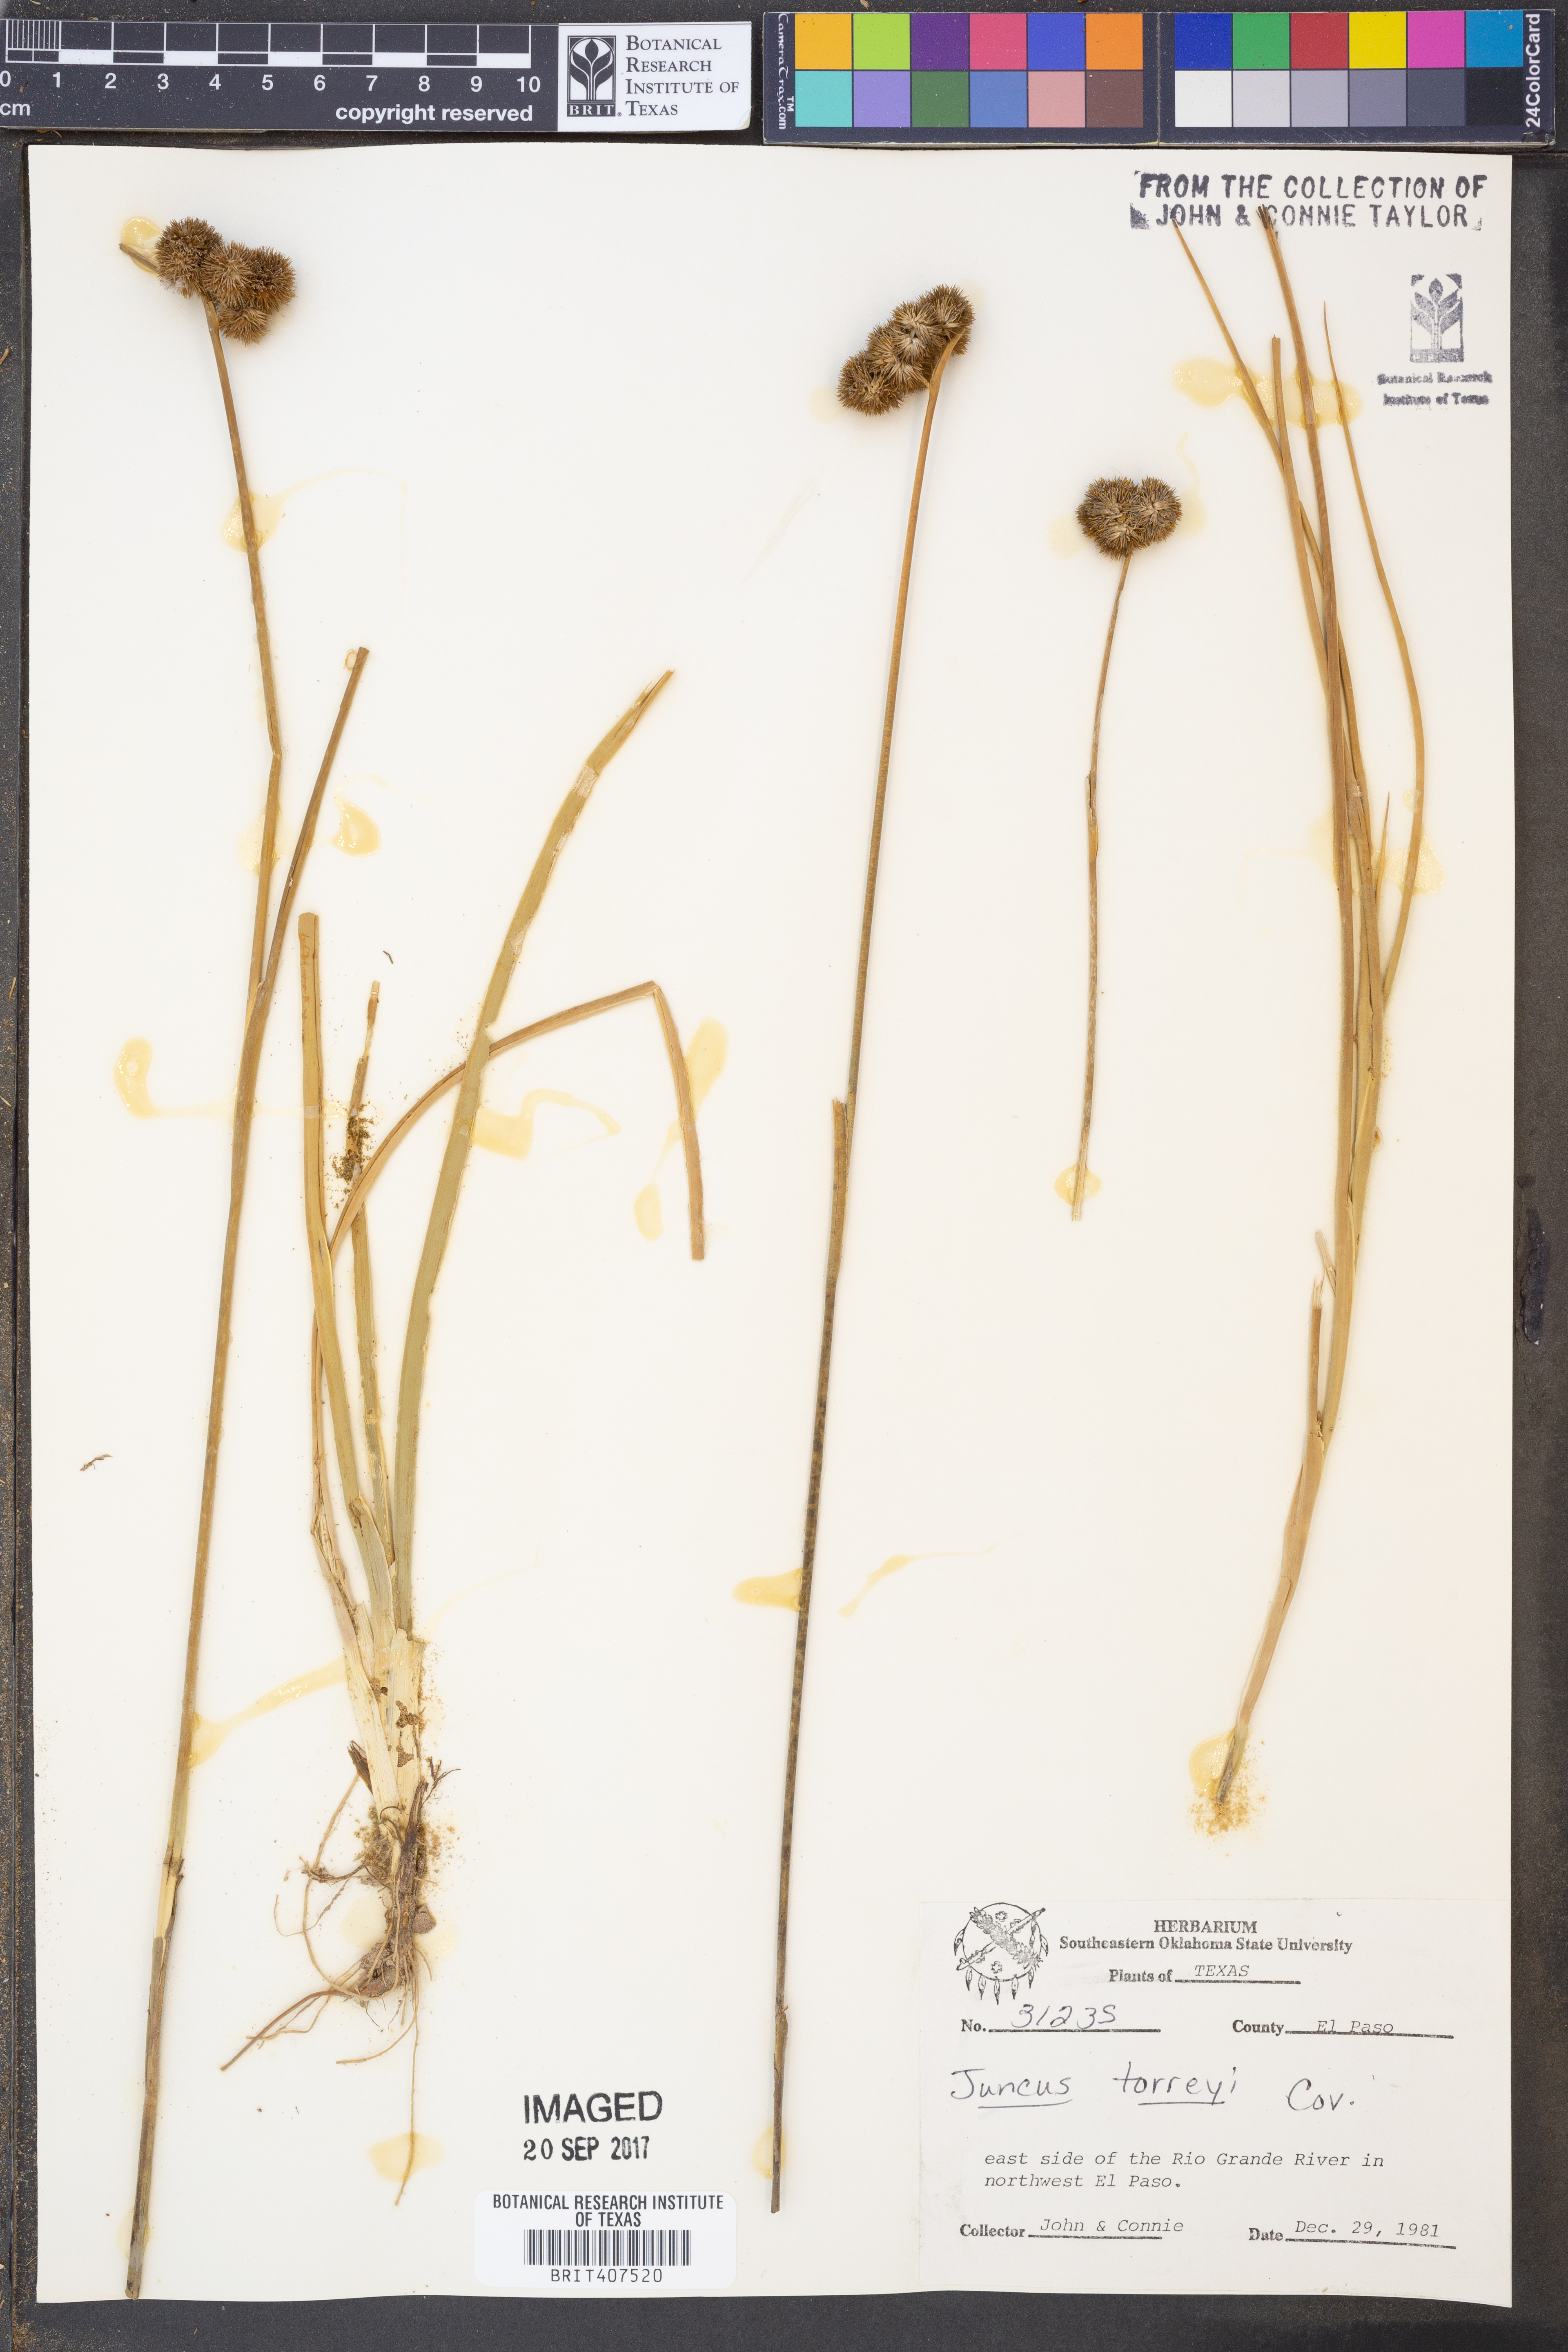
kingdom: Plantae
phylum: Tracheophyta
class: Liliopsida
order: Poales
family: Juncaceae
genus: Juncus
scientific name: Juncus torreyi
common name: Torrey's rush
